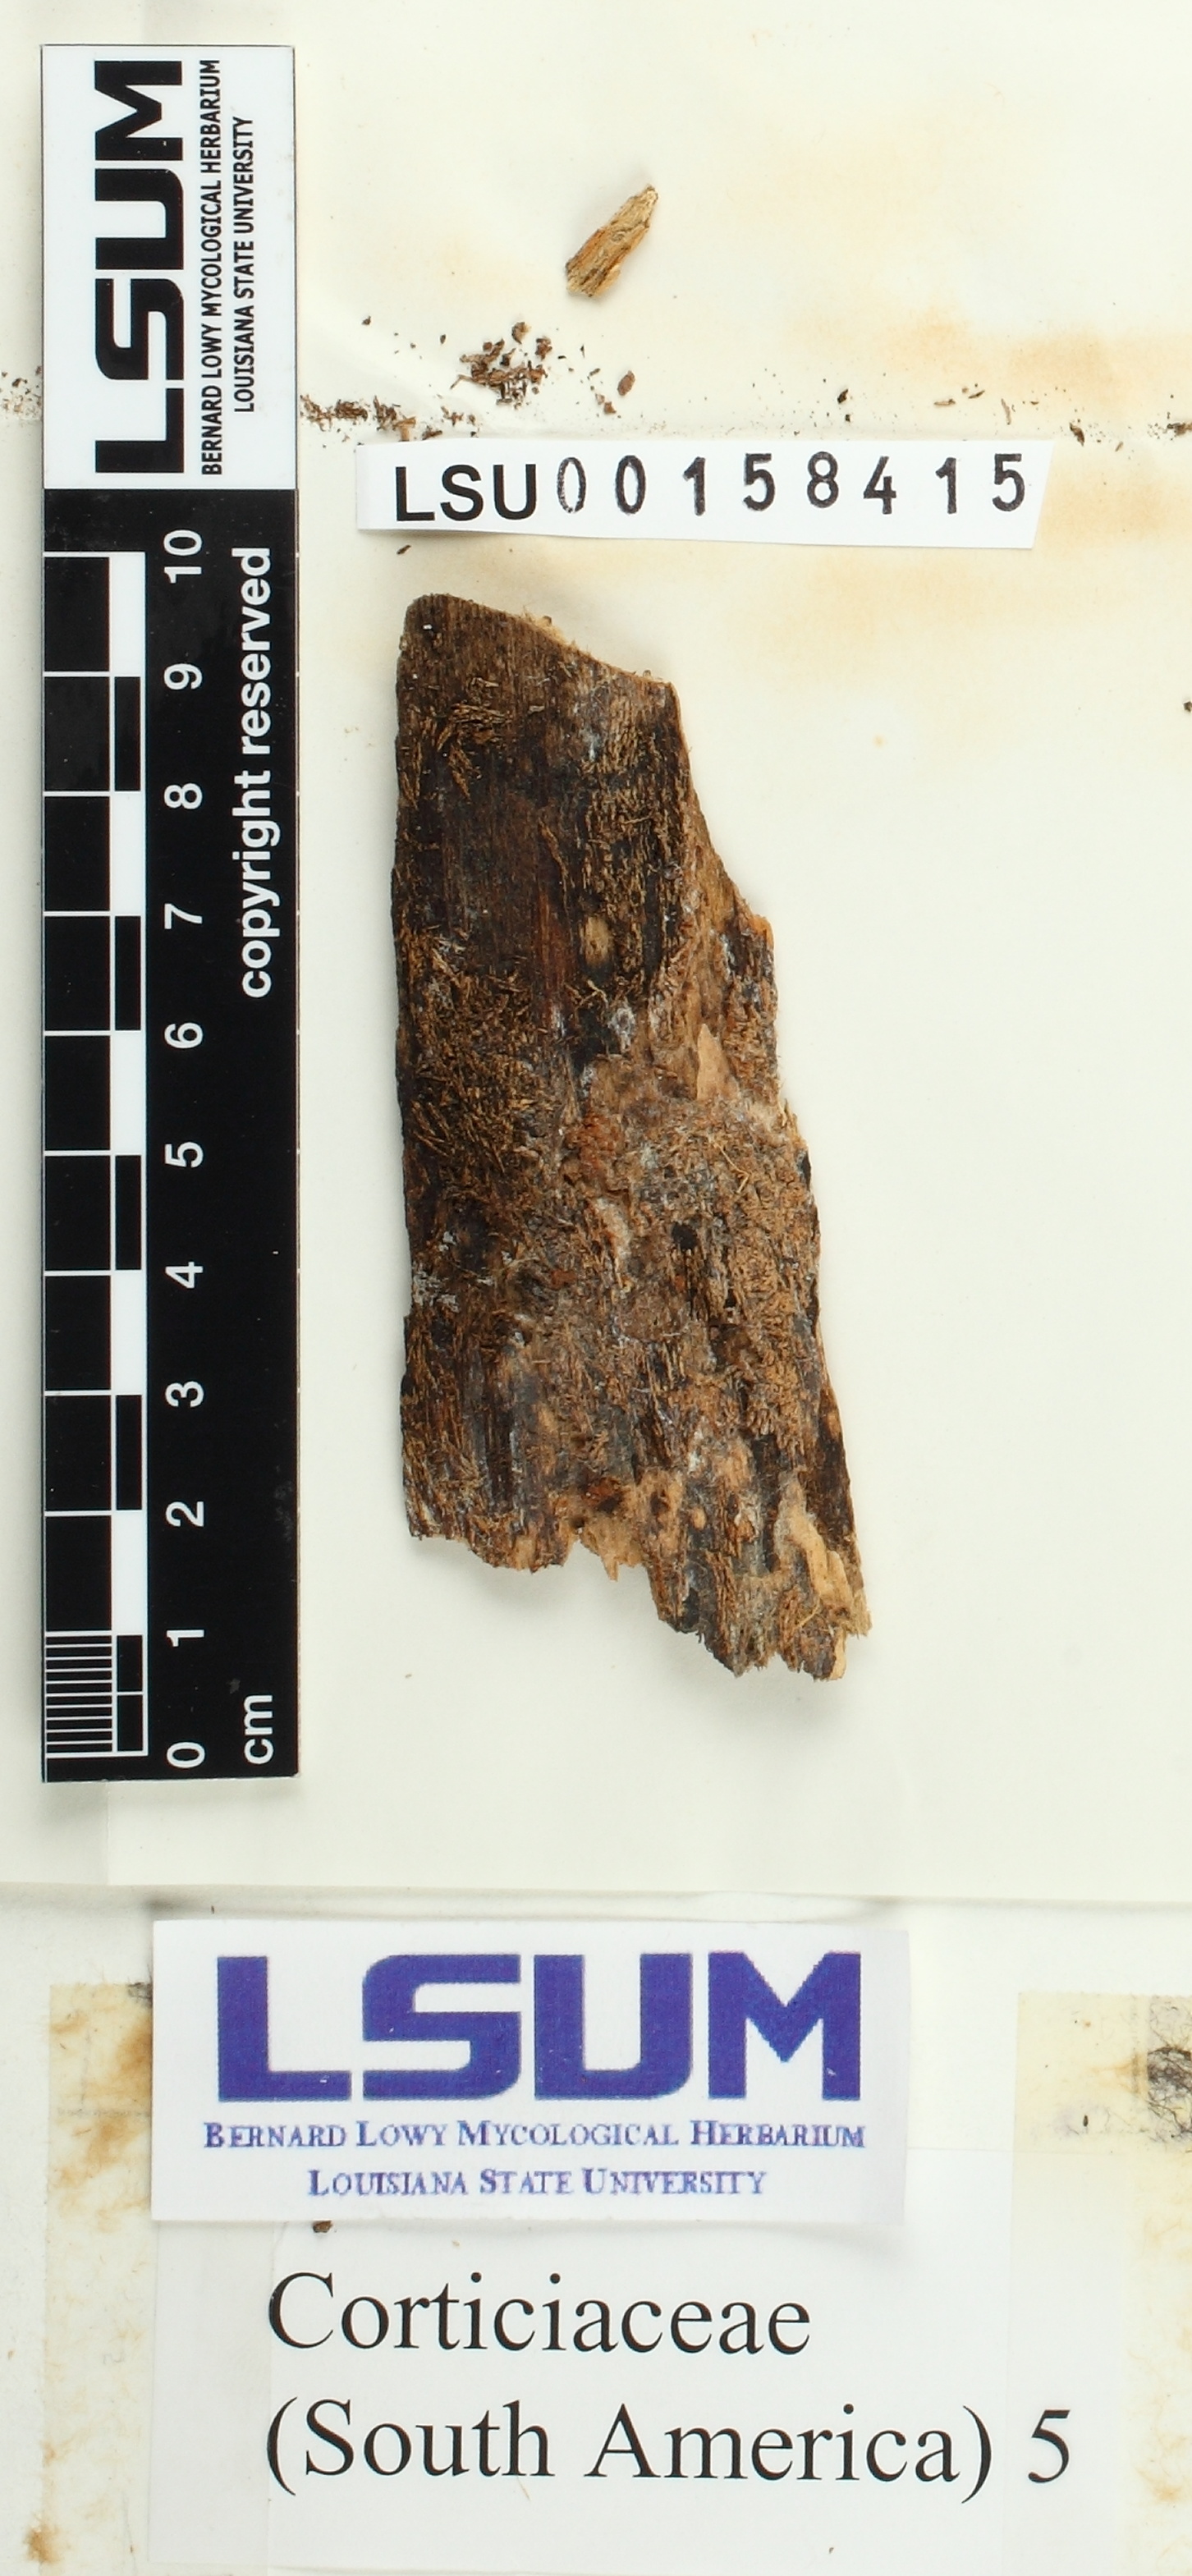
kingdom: Fungi
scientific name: Fungi
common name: Fungi
